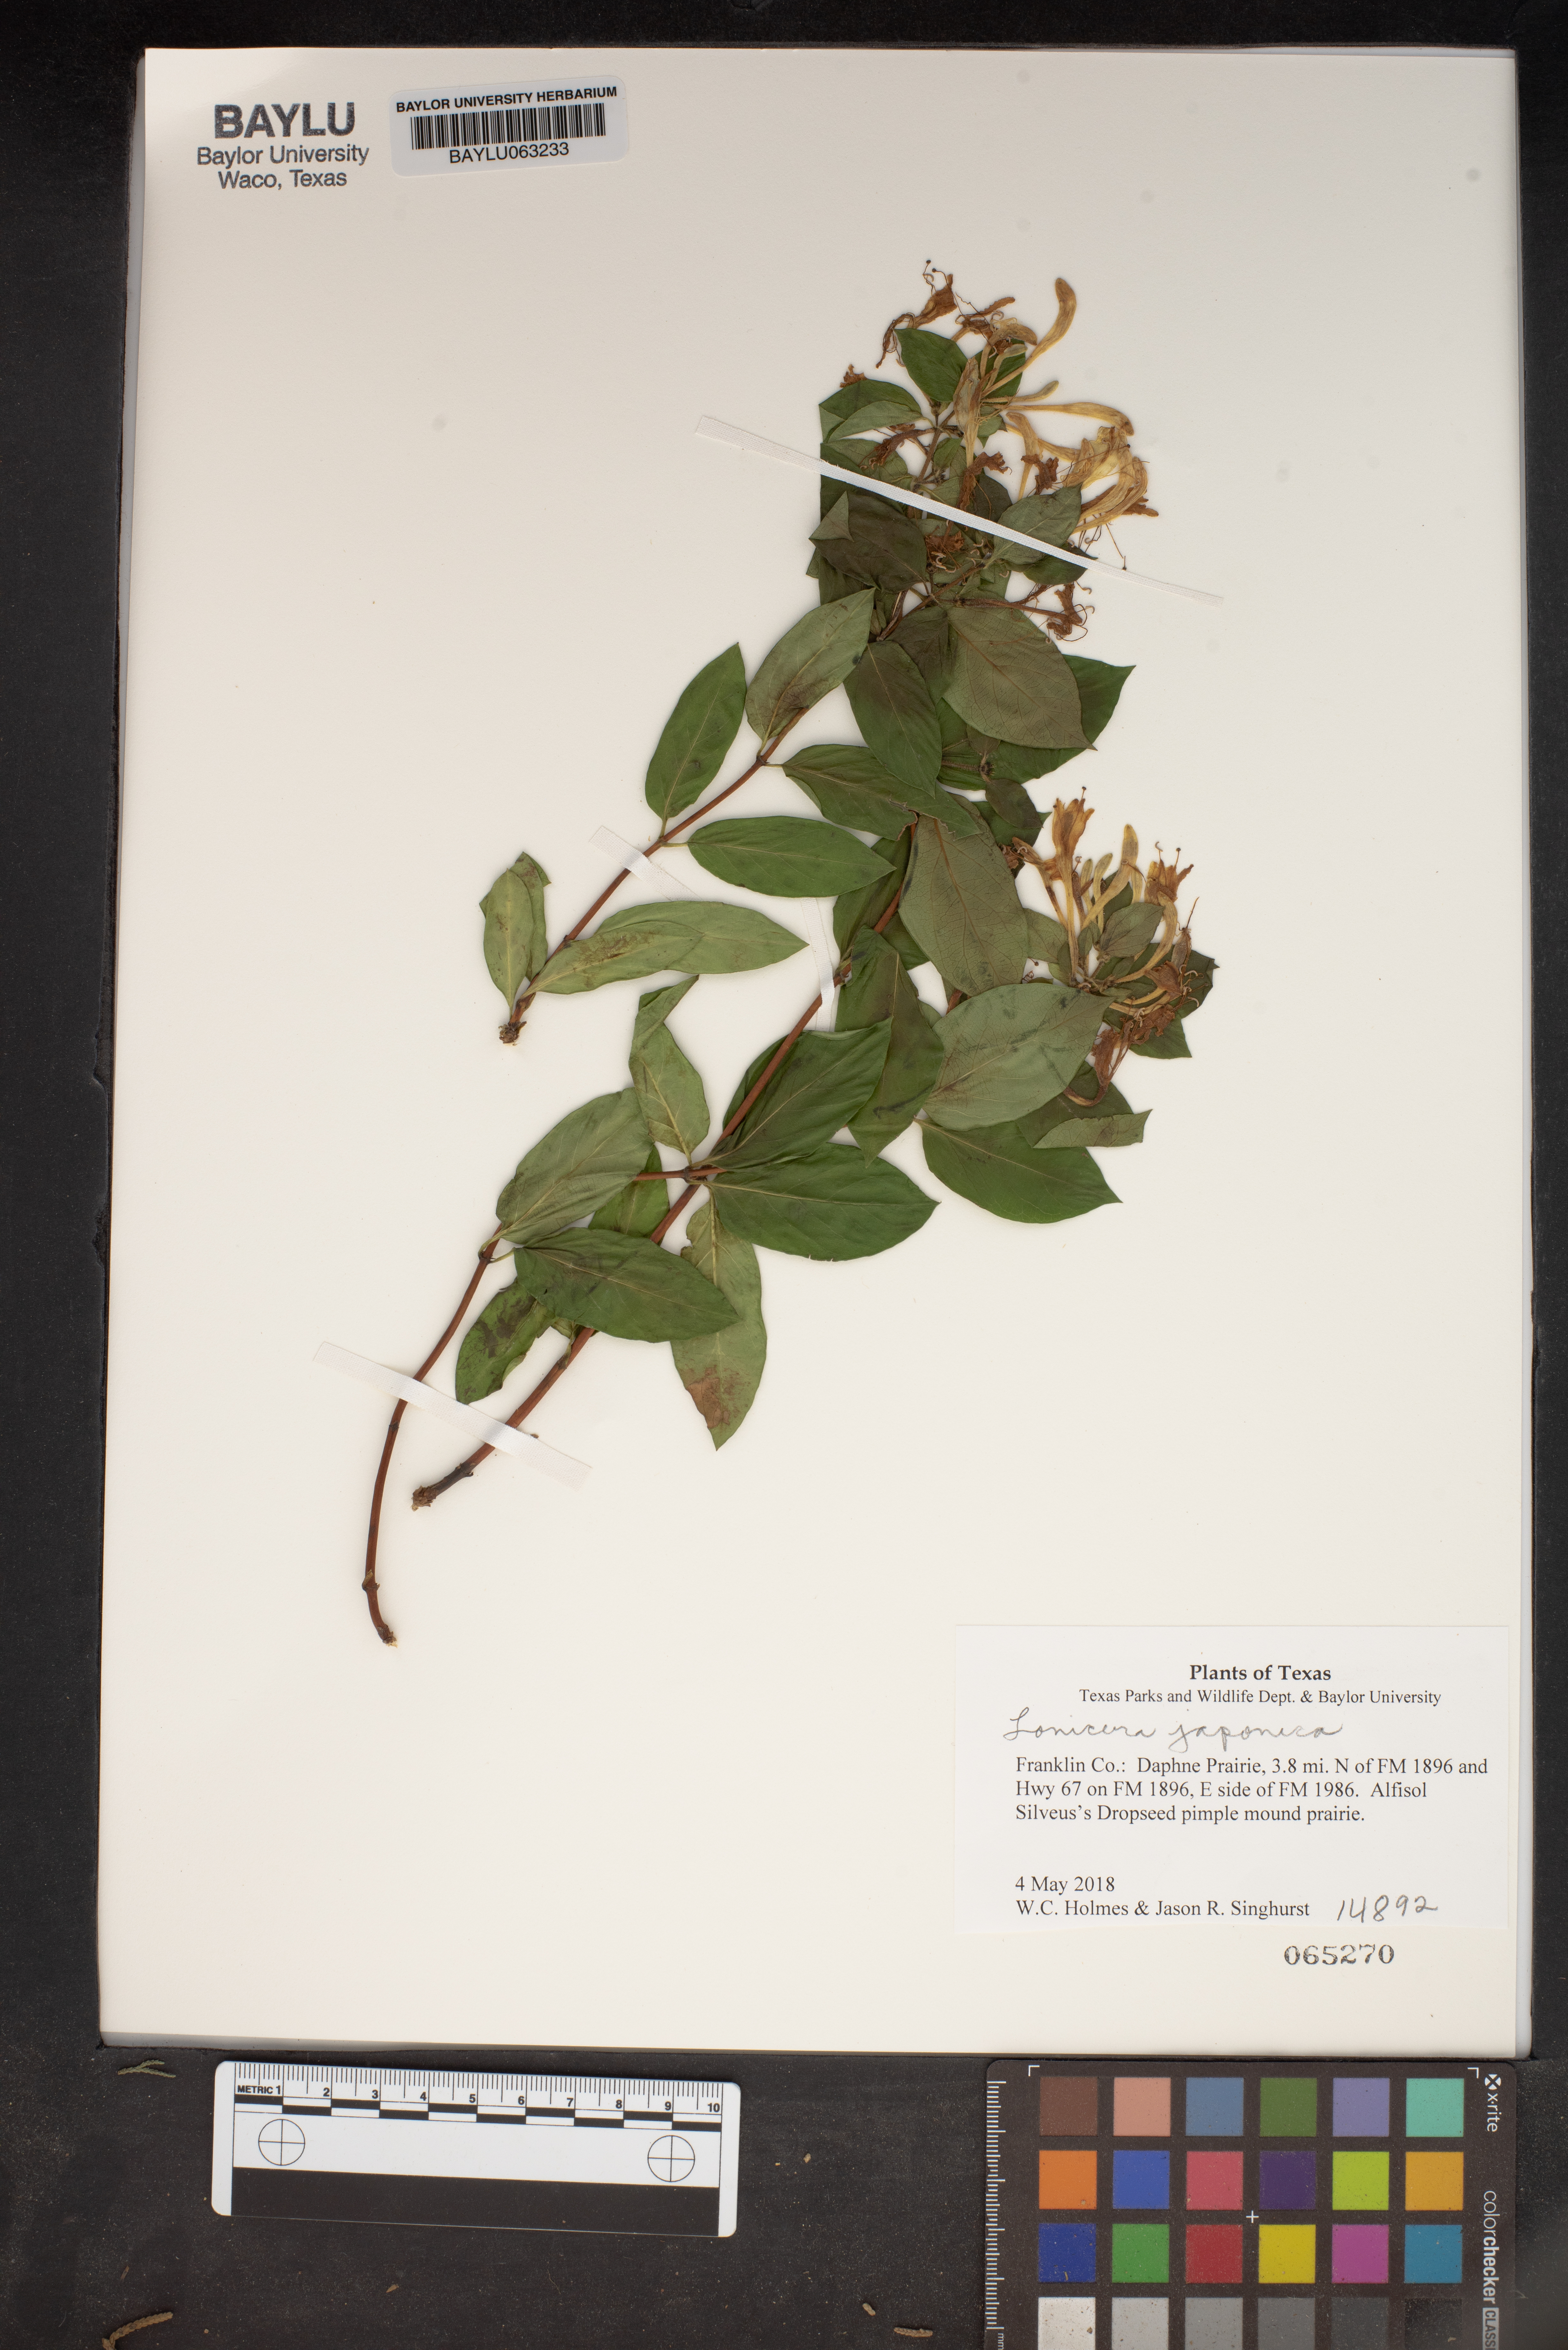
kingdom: Plantae
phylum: Tracheophyta
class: Magnoliopsida
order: Dipsacales
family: Caprifoliaceae
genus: Lonicera
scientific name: Lonicera japonica
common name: Japanese honeysuckle
